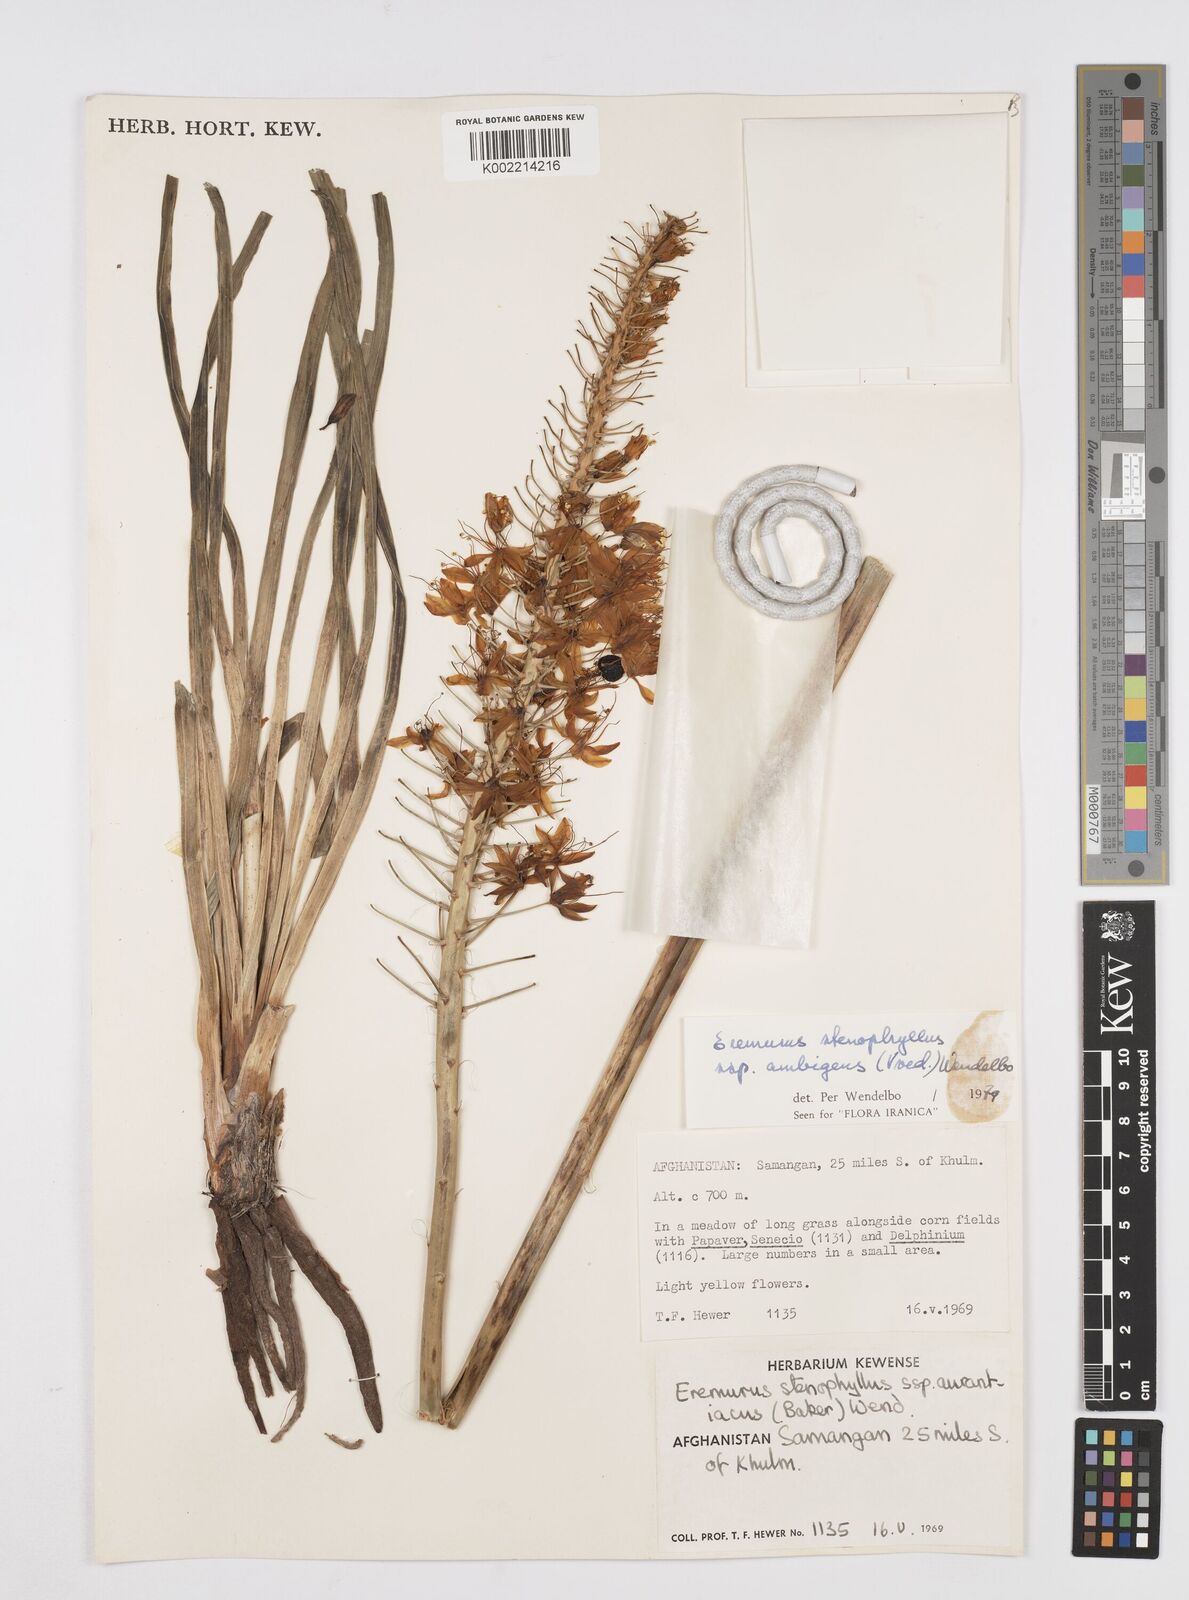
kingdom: Plantae
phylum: Tracheophyta
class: Liliopsida
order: Asparagales
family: Asphodelaceae
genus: Eremurus
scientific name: Eremurus stenophyllus
